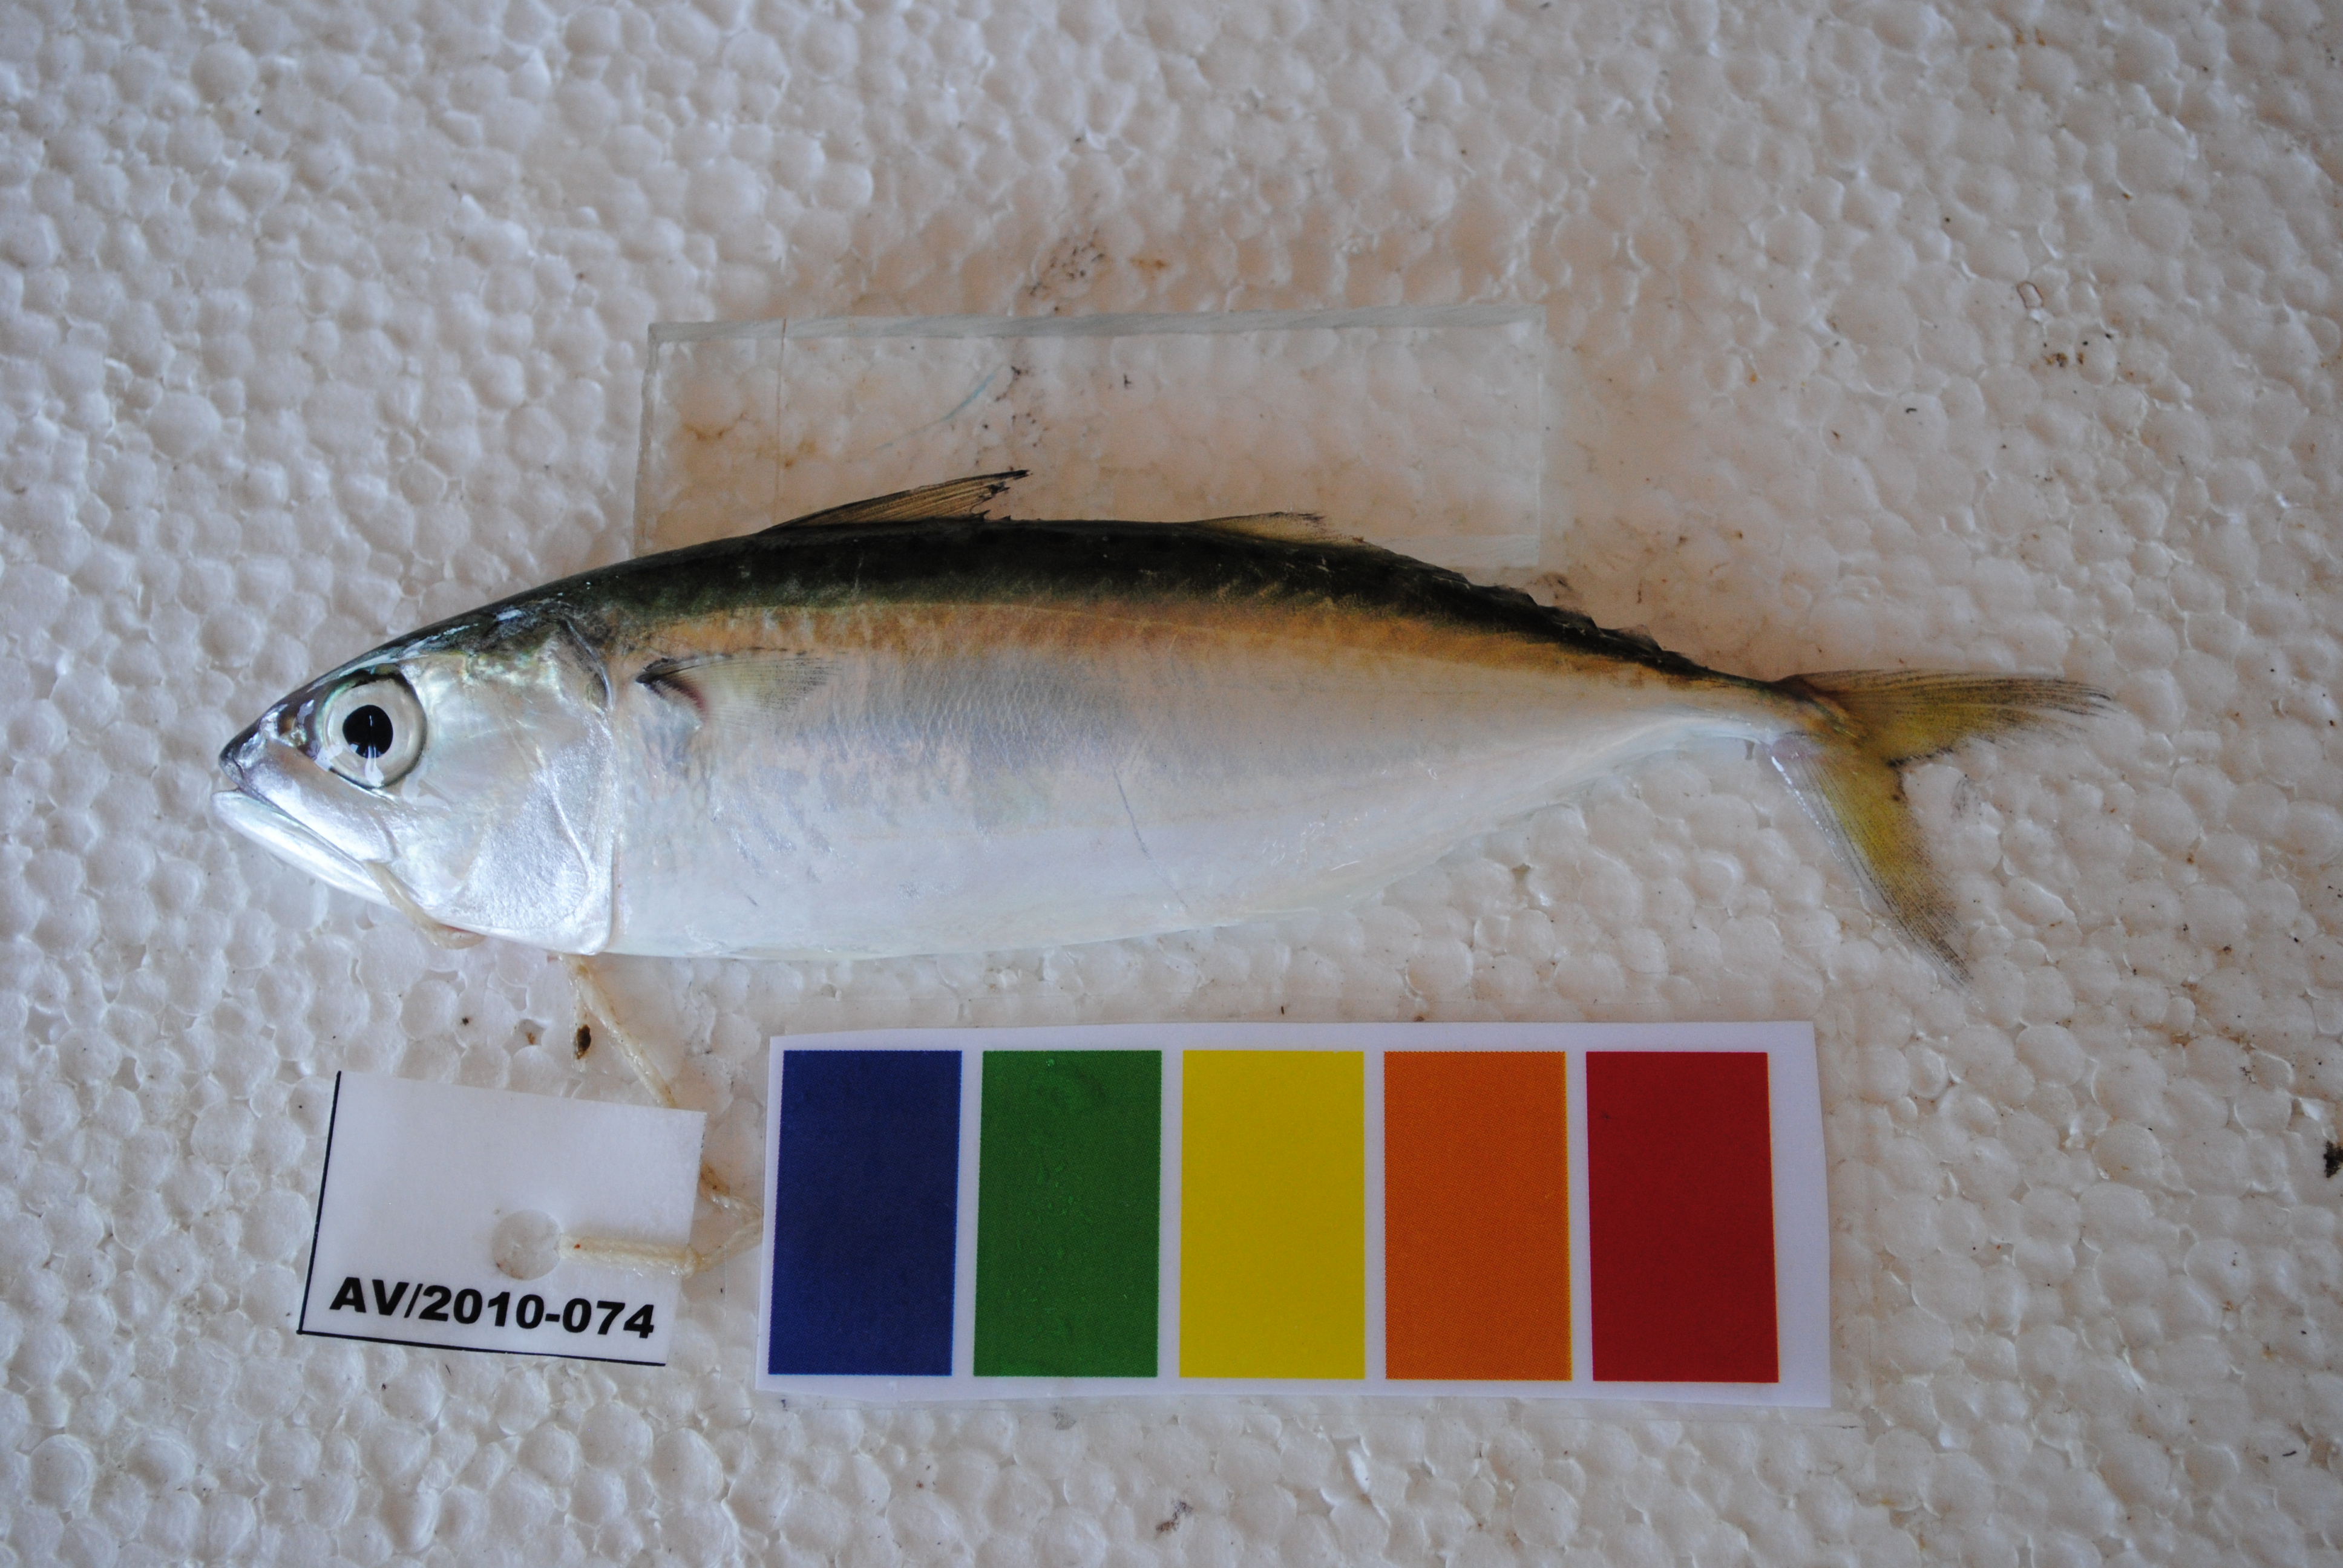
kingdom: Animalia
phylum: Chordata
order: Perciformes
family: Scombridae
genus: Rastrelliger
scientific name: Rastrelliger kanagurta
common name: Indian mackerel
